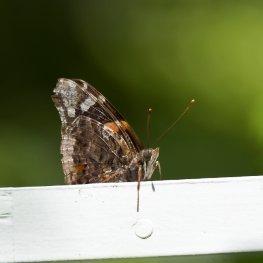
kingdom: Animalia
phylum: Arthropoda
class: Insecta
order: Lepidoptera
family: Nymphalidae
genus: Vanessa
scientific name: Vanessa atalanta
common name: Red Admiral
